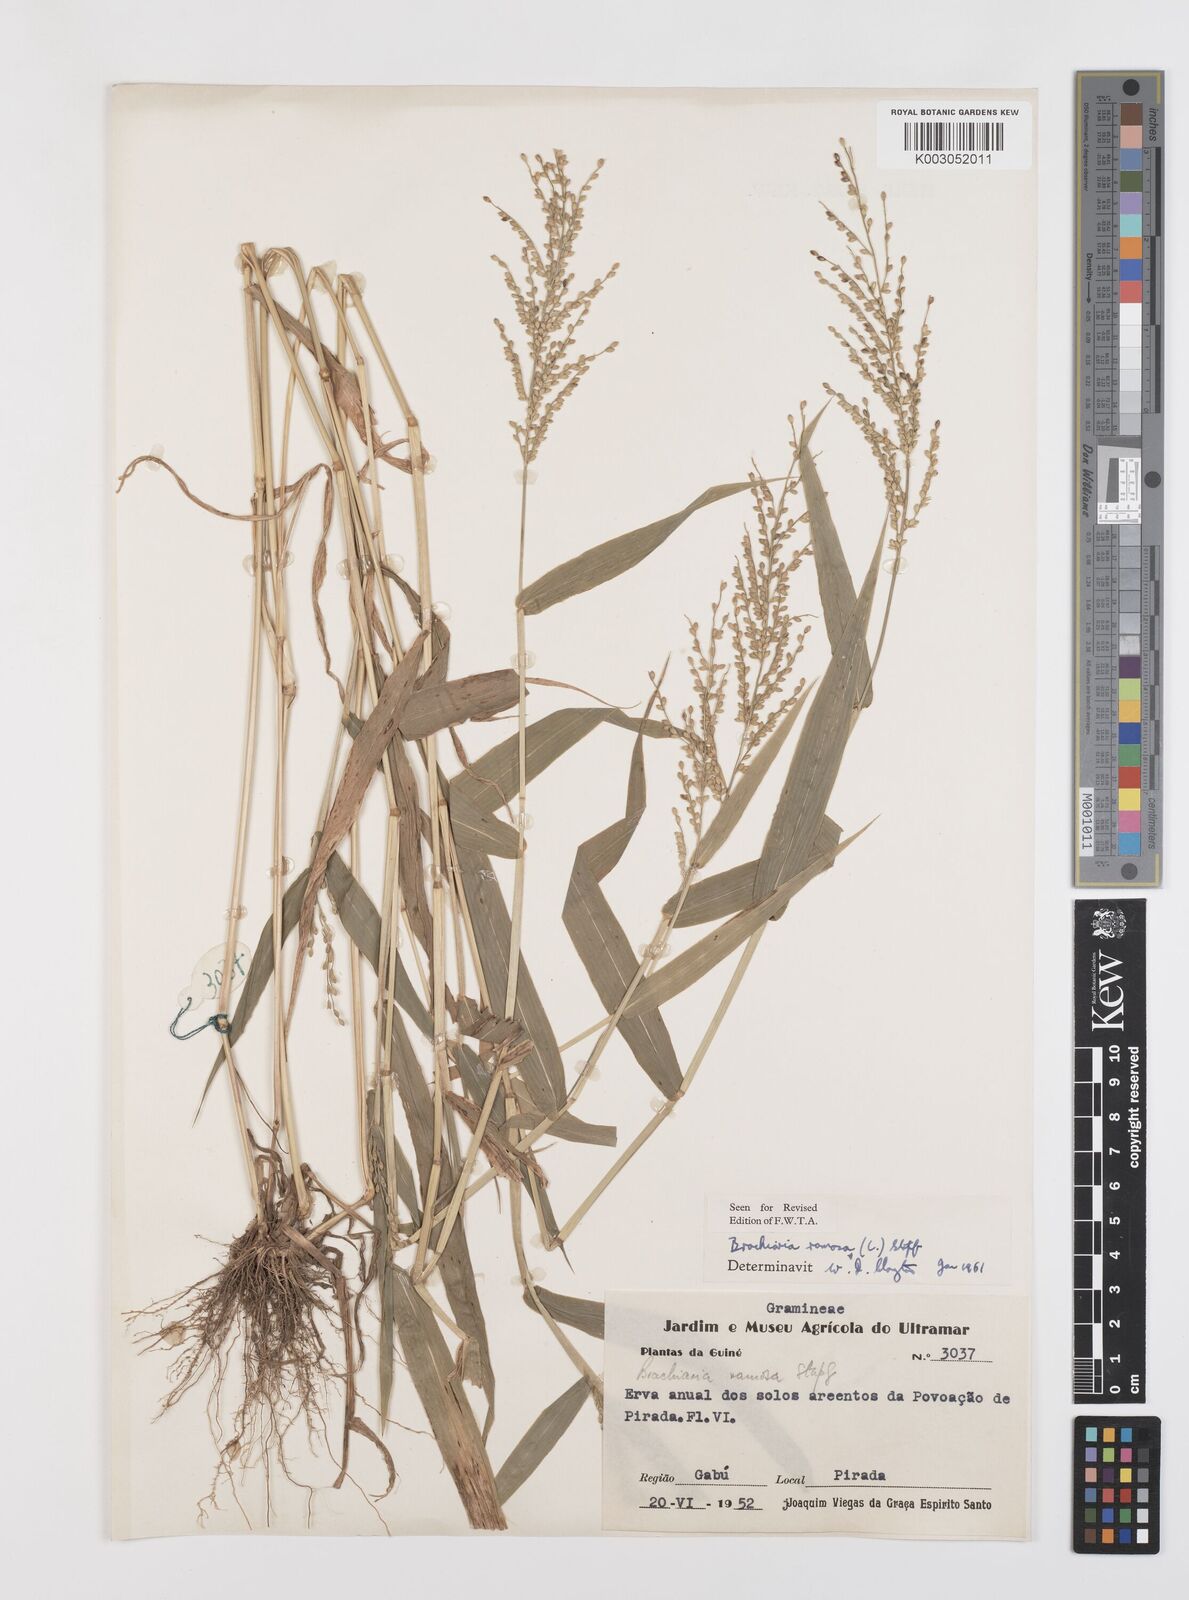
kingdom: Plantae
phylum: Tracheophyta
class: Liliopsida
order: Poales
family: Poaceae
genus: Urochloa
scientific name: Urochloa ramosa
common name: Browntop millet
